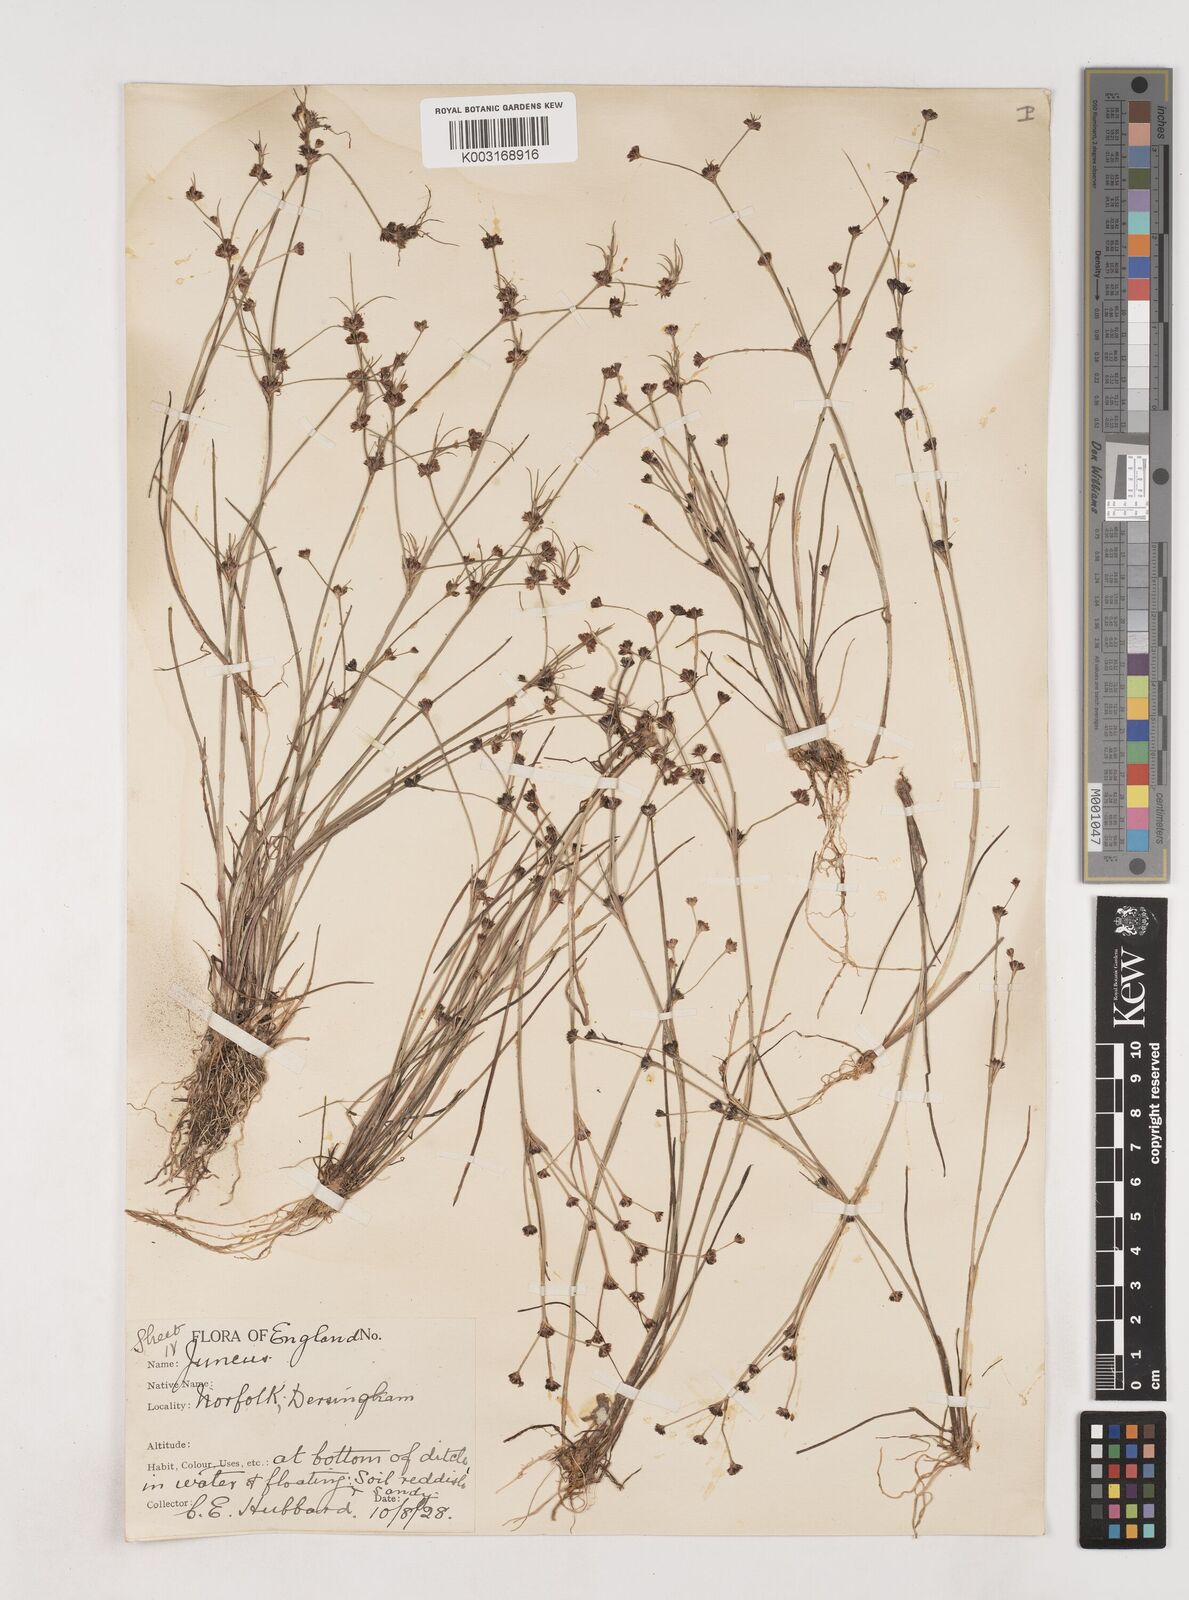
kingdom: Plantae
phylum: Tracheophyta
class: Liliopsida
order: Poales
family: Juncaceae
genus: Juncus
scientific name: Juncus bulbosus
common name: Bulbous rush
